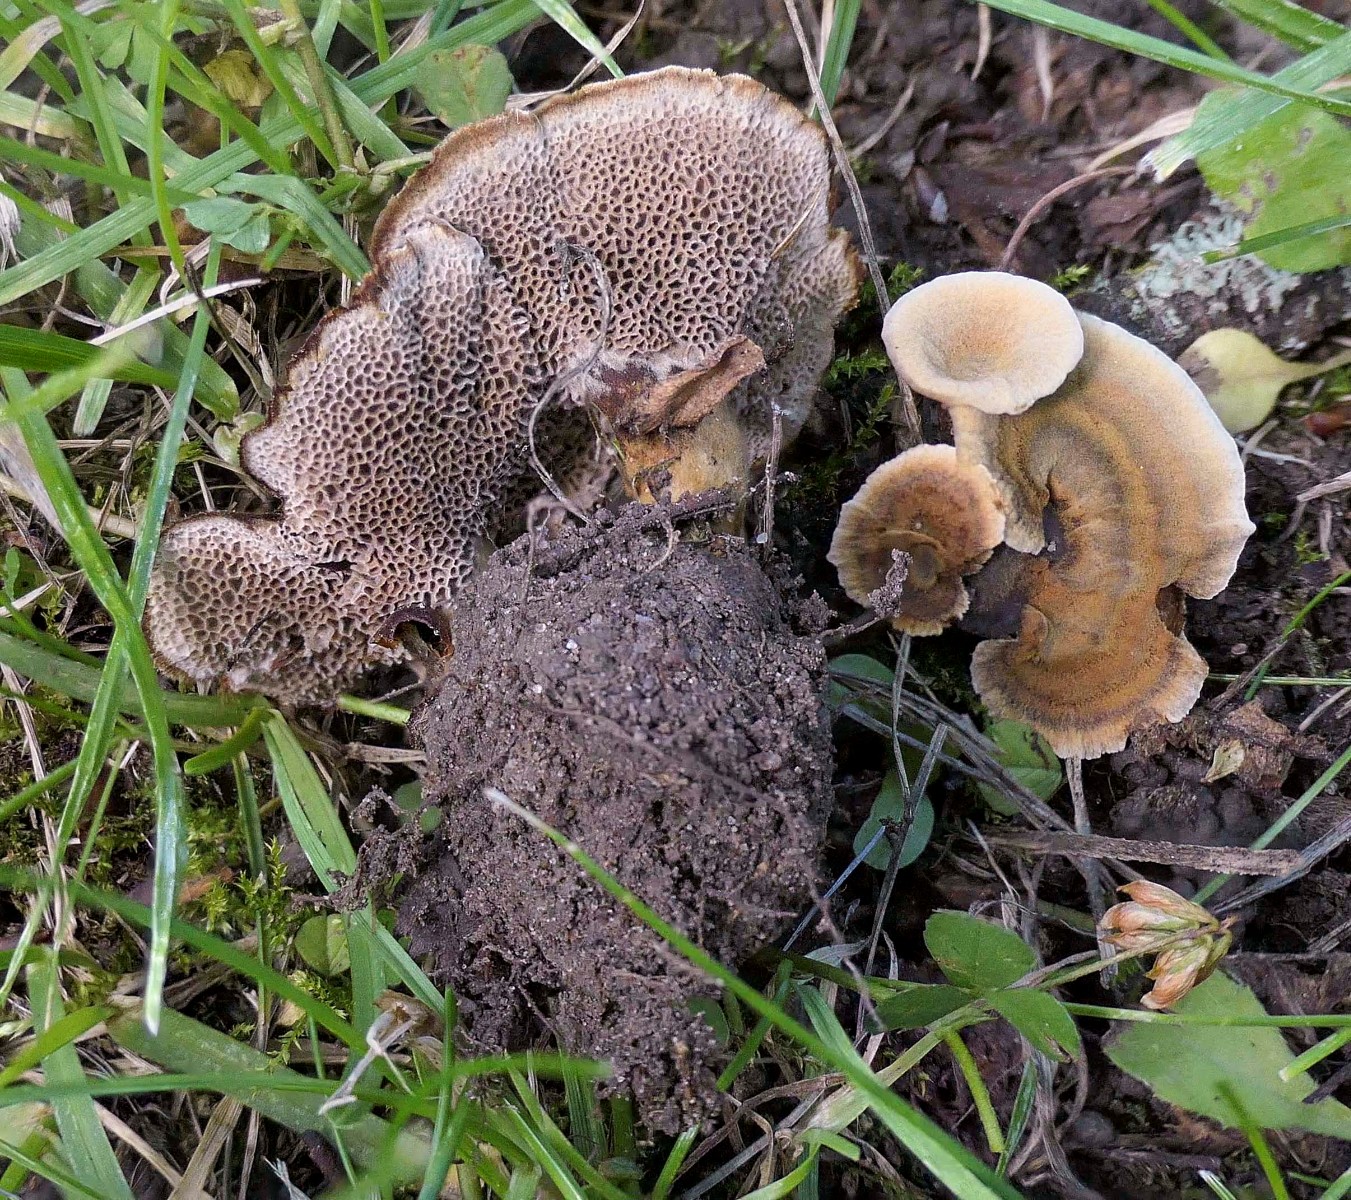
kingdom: Fungi
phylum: Basidiomycota
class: Agaricomycetes
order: Hymenochaetales
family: Hymenochaetaceae
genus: Coltricia
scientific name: Coltricia confluens
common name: park-sandporesvamp
